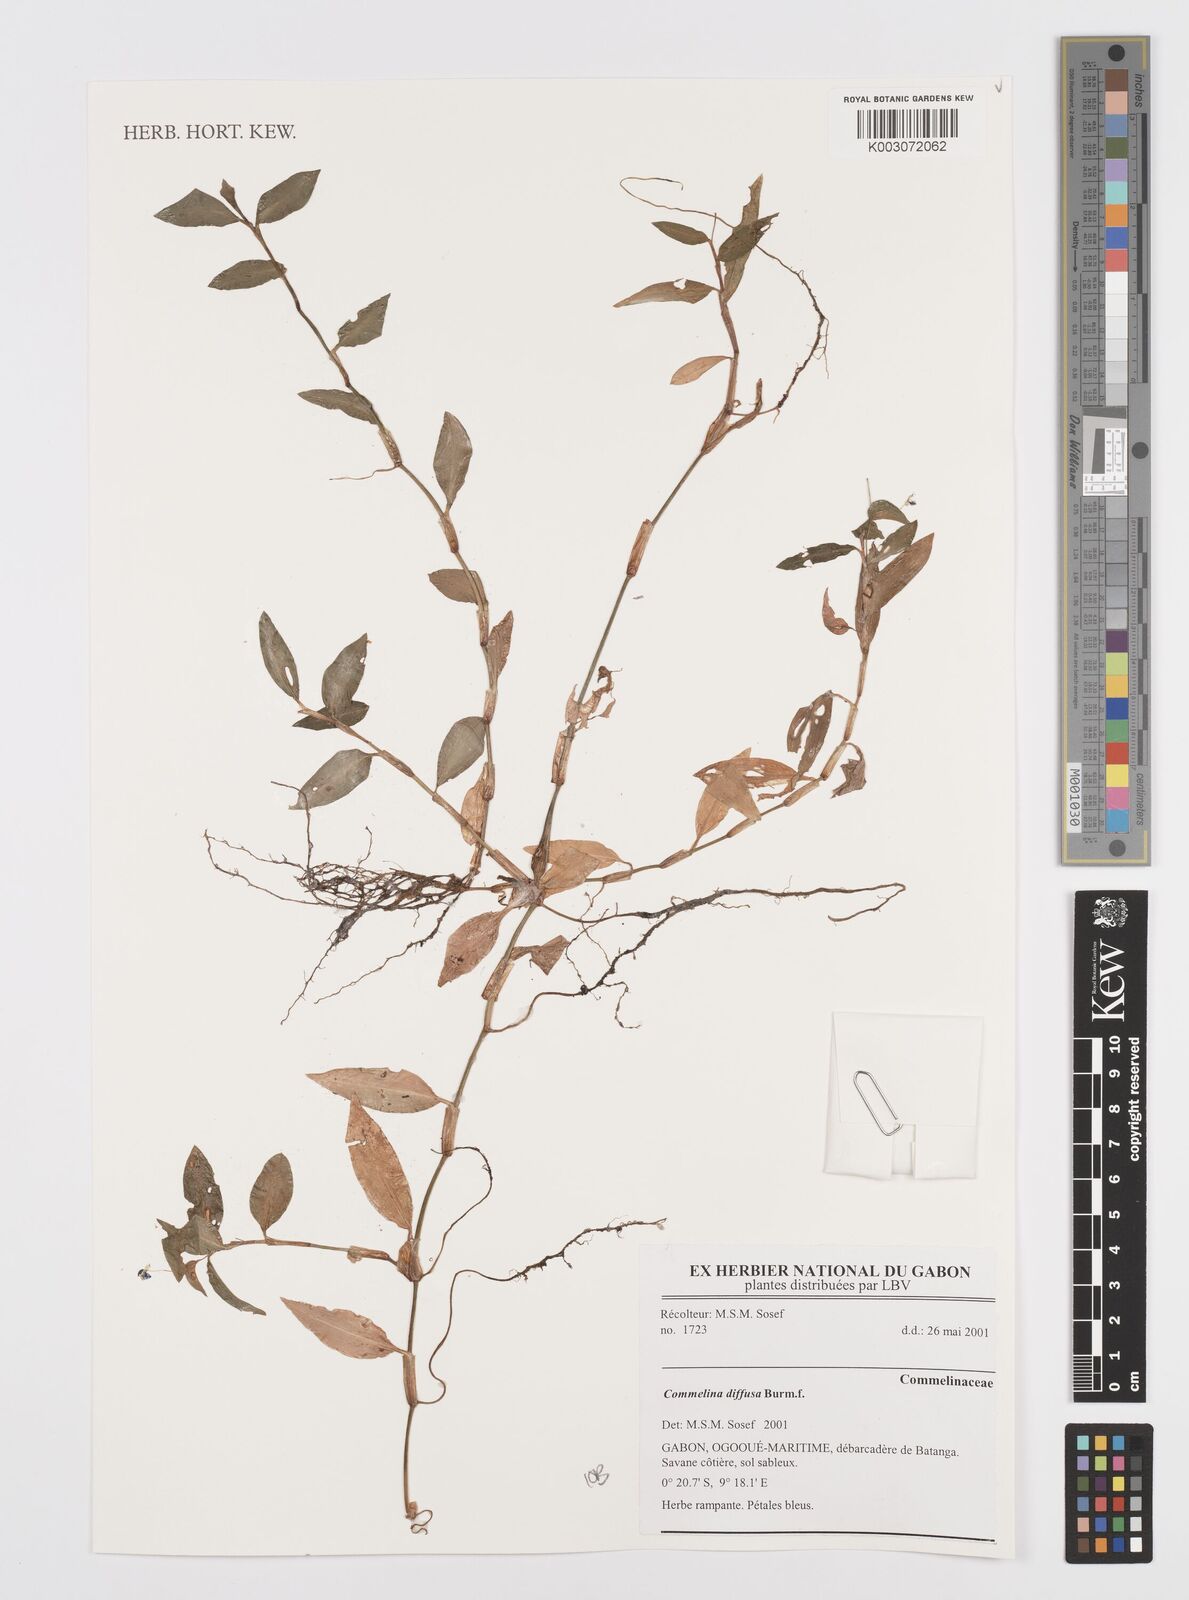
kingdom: Plantae
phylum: Tracheophyta
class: Liliopsida
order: Commelinales
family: Commelinaceae
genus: Commelina
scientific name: Commelina diffusa
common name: Climbing dayflower
